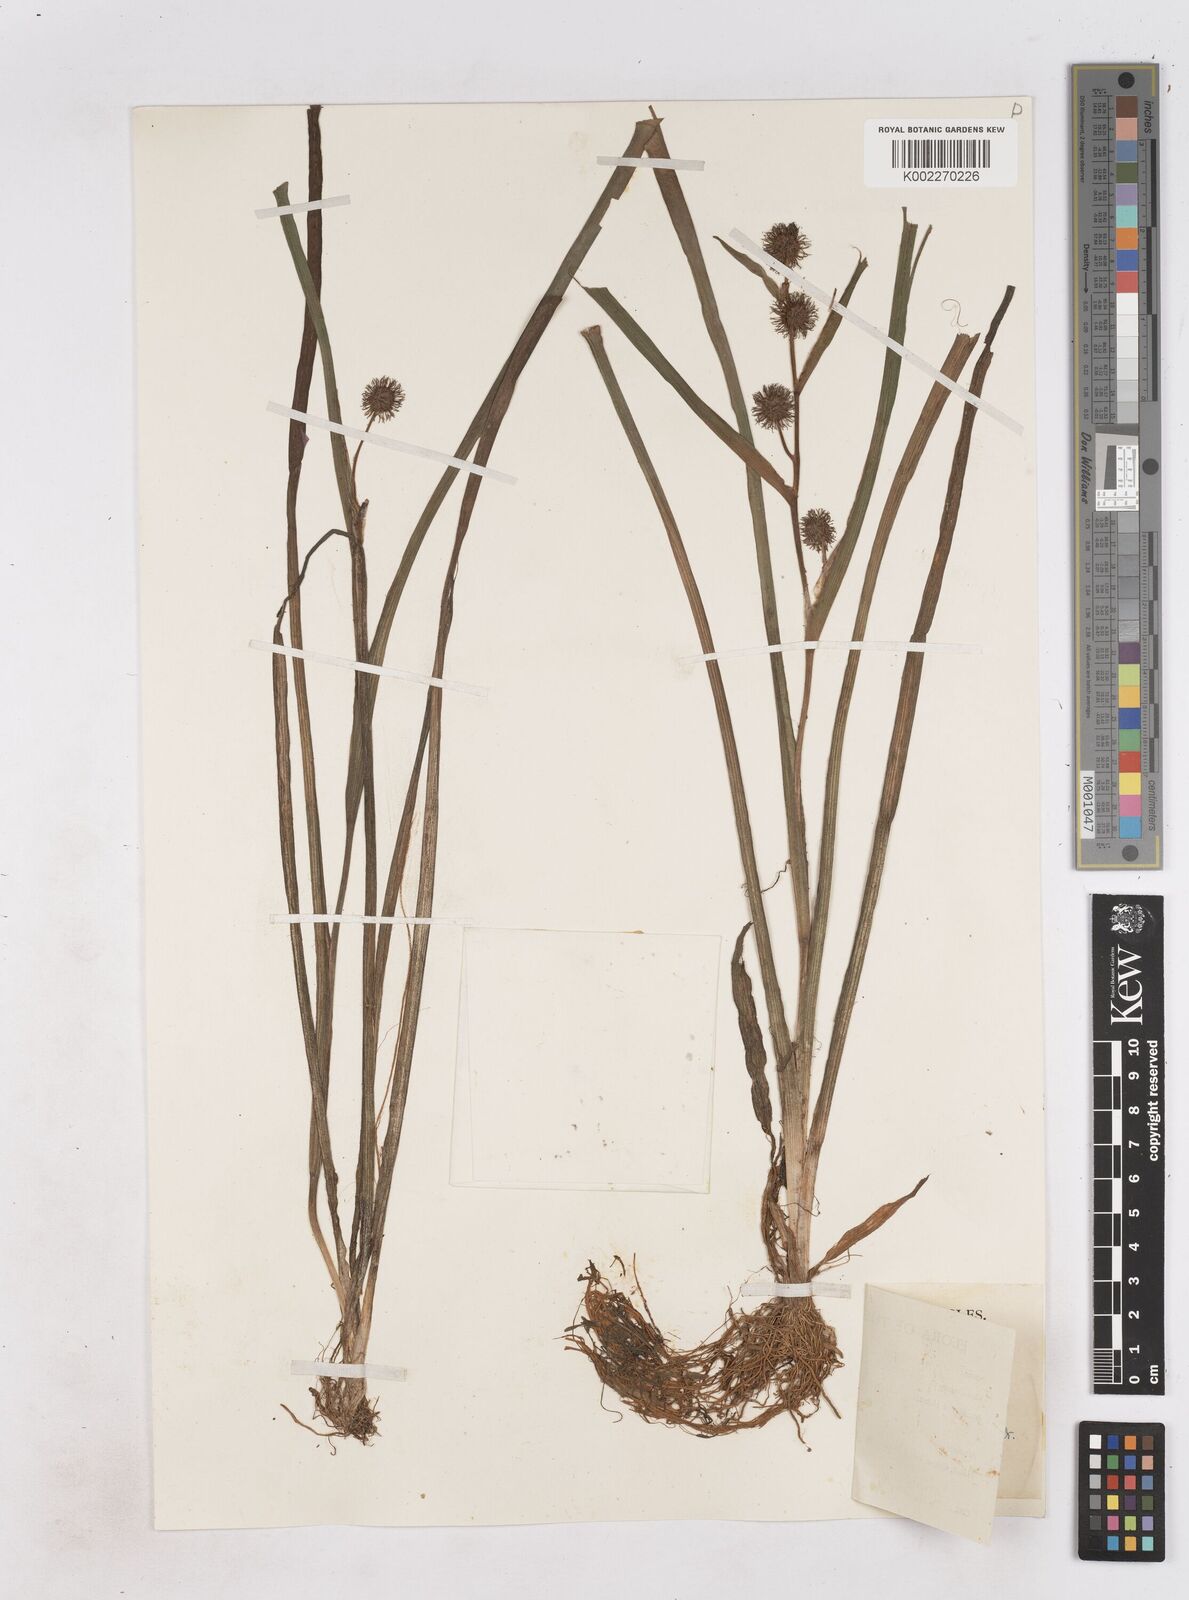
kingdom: Plantae
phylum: Tracheophyta
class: Liliopsida
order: Poales
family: Typhaceae
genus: Sparganium
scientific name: Sparganium emersum
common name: Unbranched bur-reed
